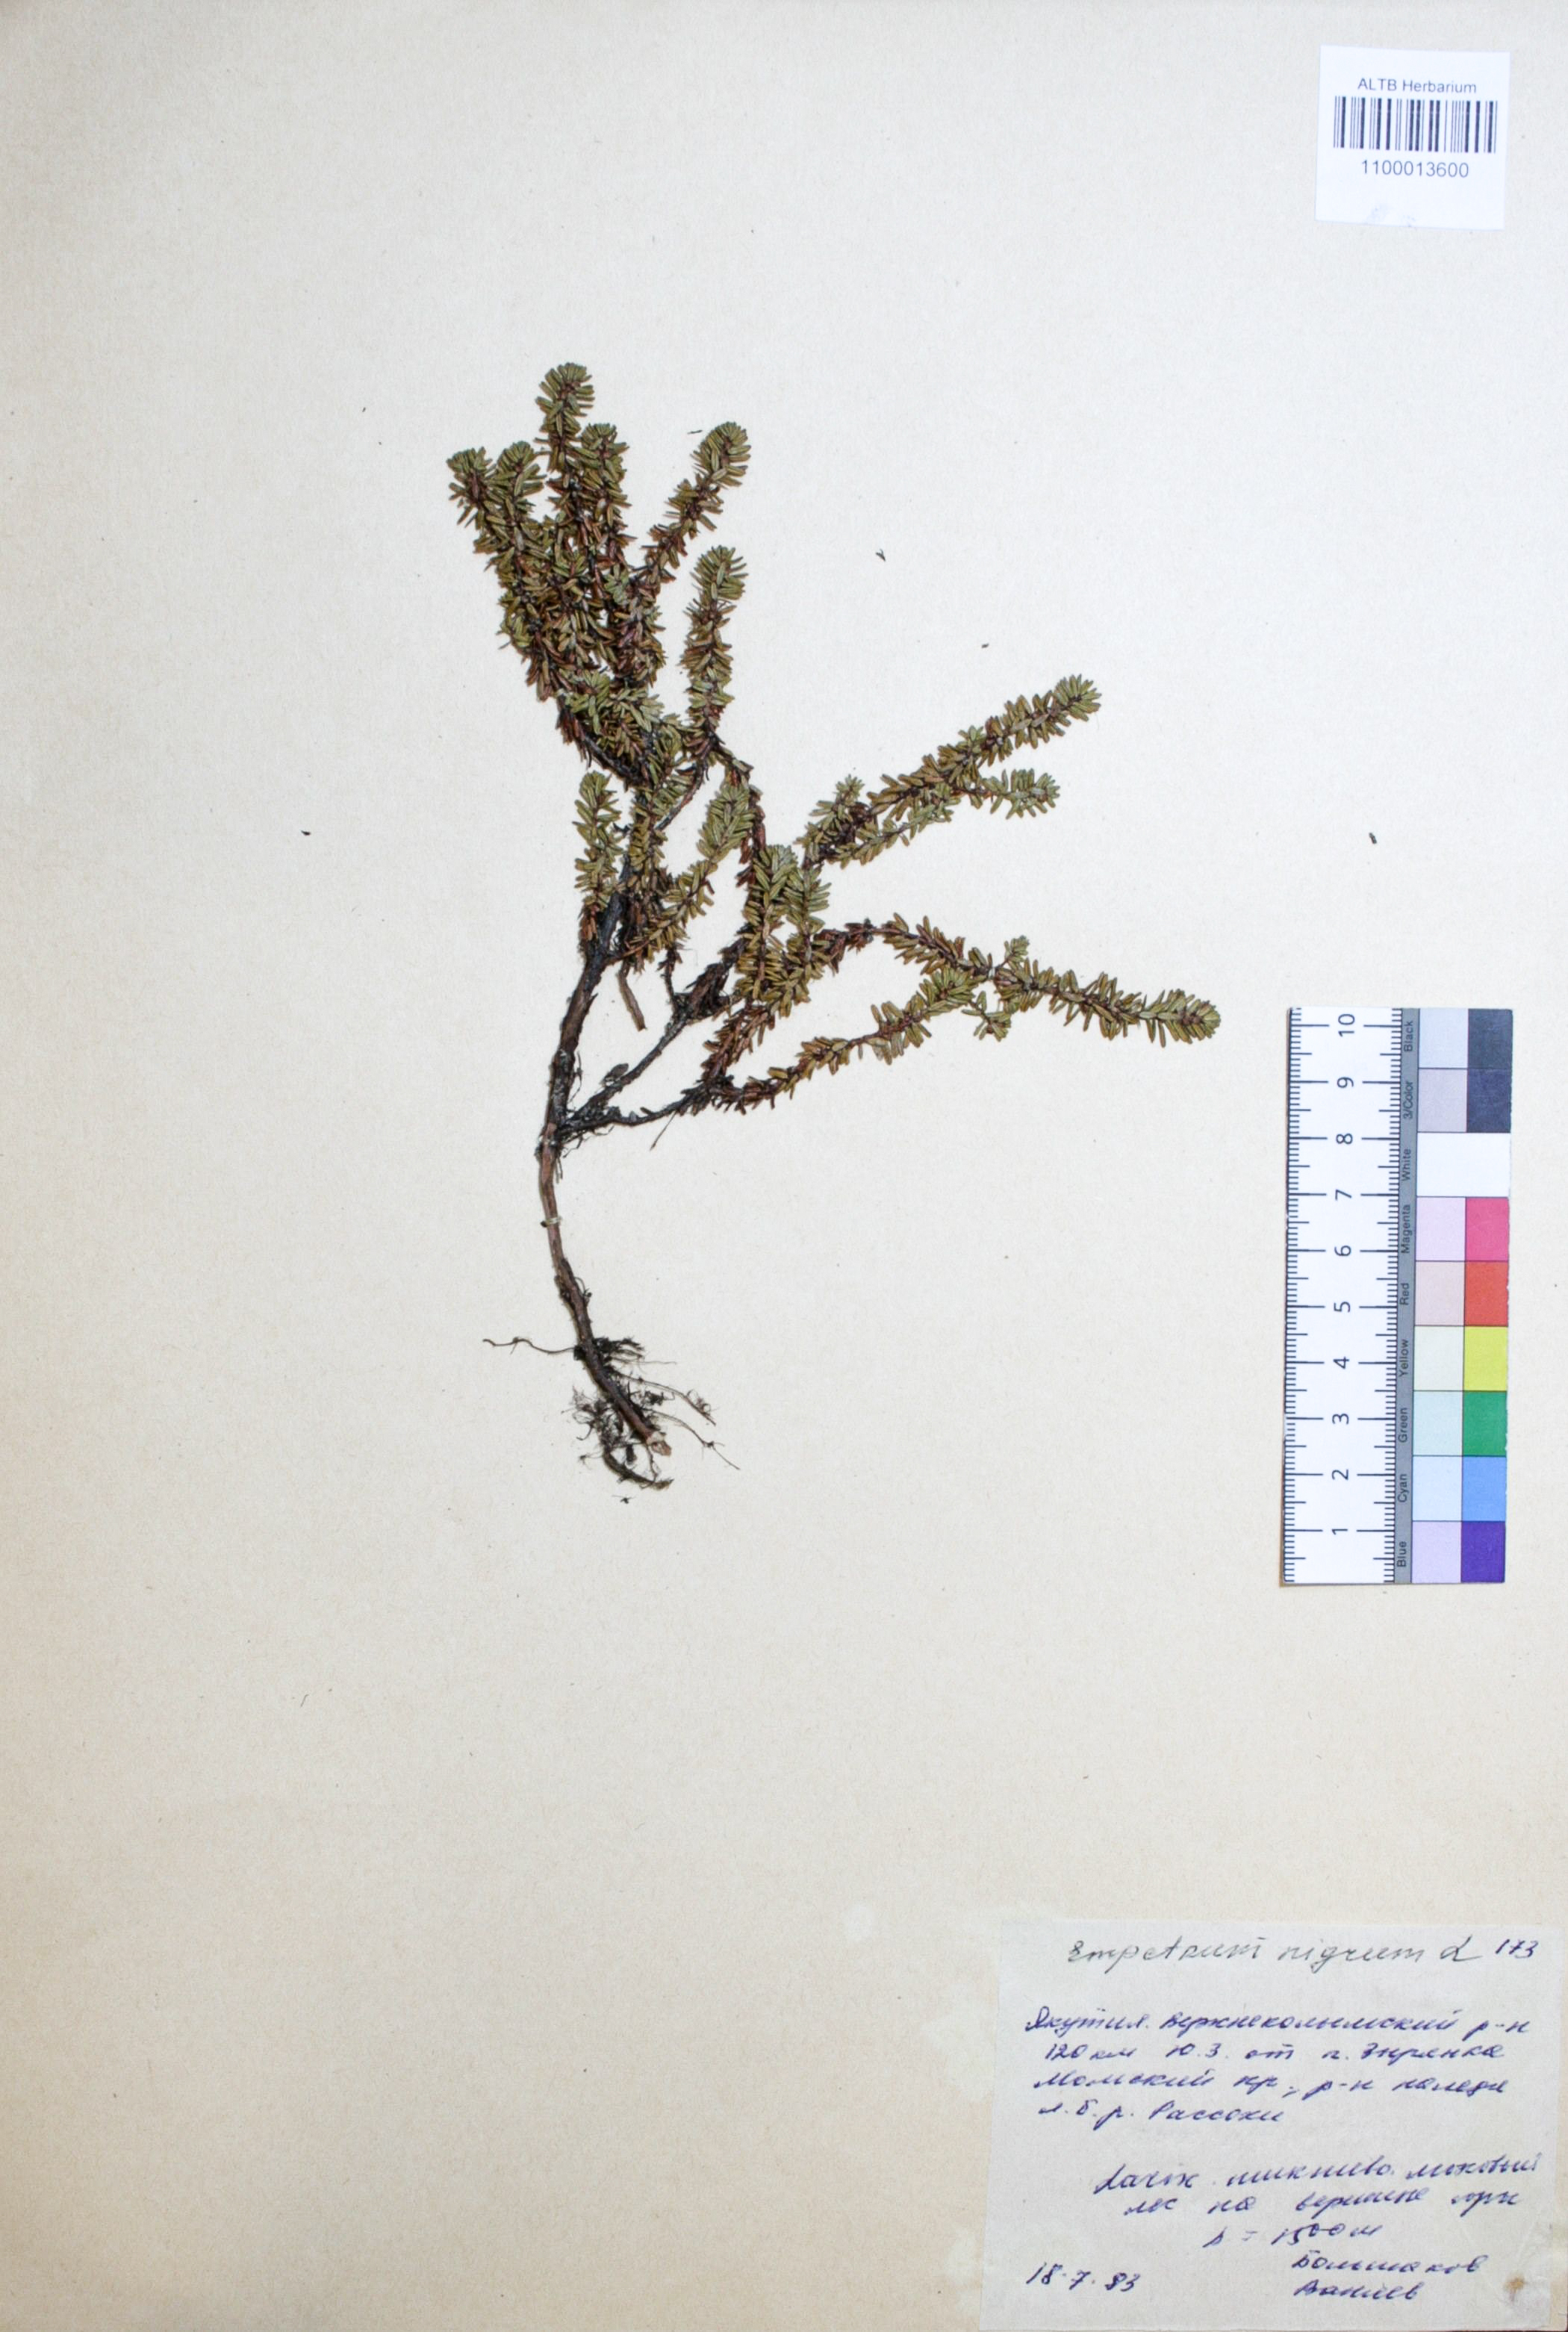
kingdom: Plantae
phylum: Tracheophyta
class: Magnoliopsida
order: Ericales
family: Ericaceae
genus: Empetrum
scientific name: Empetrum nigrum
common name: Black crowberry
